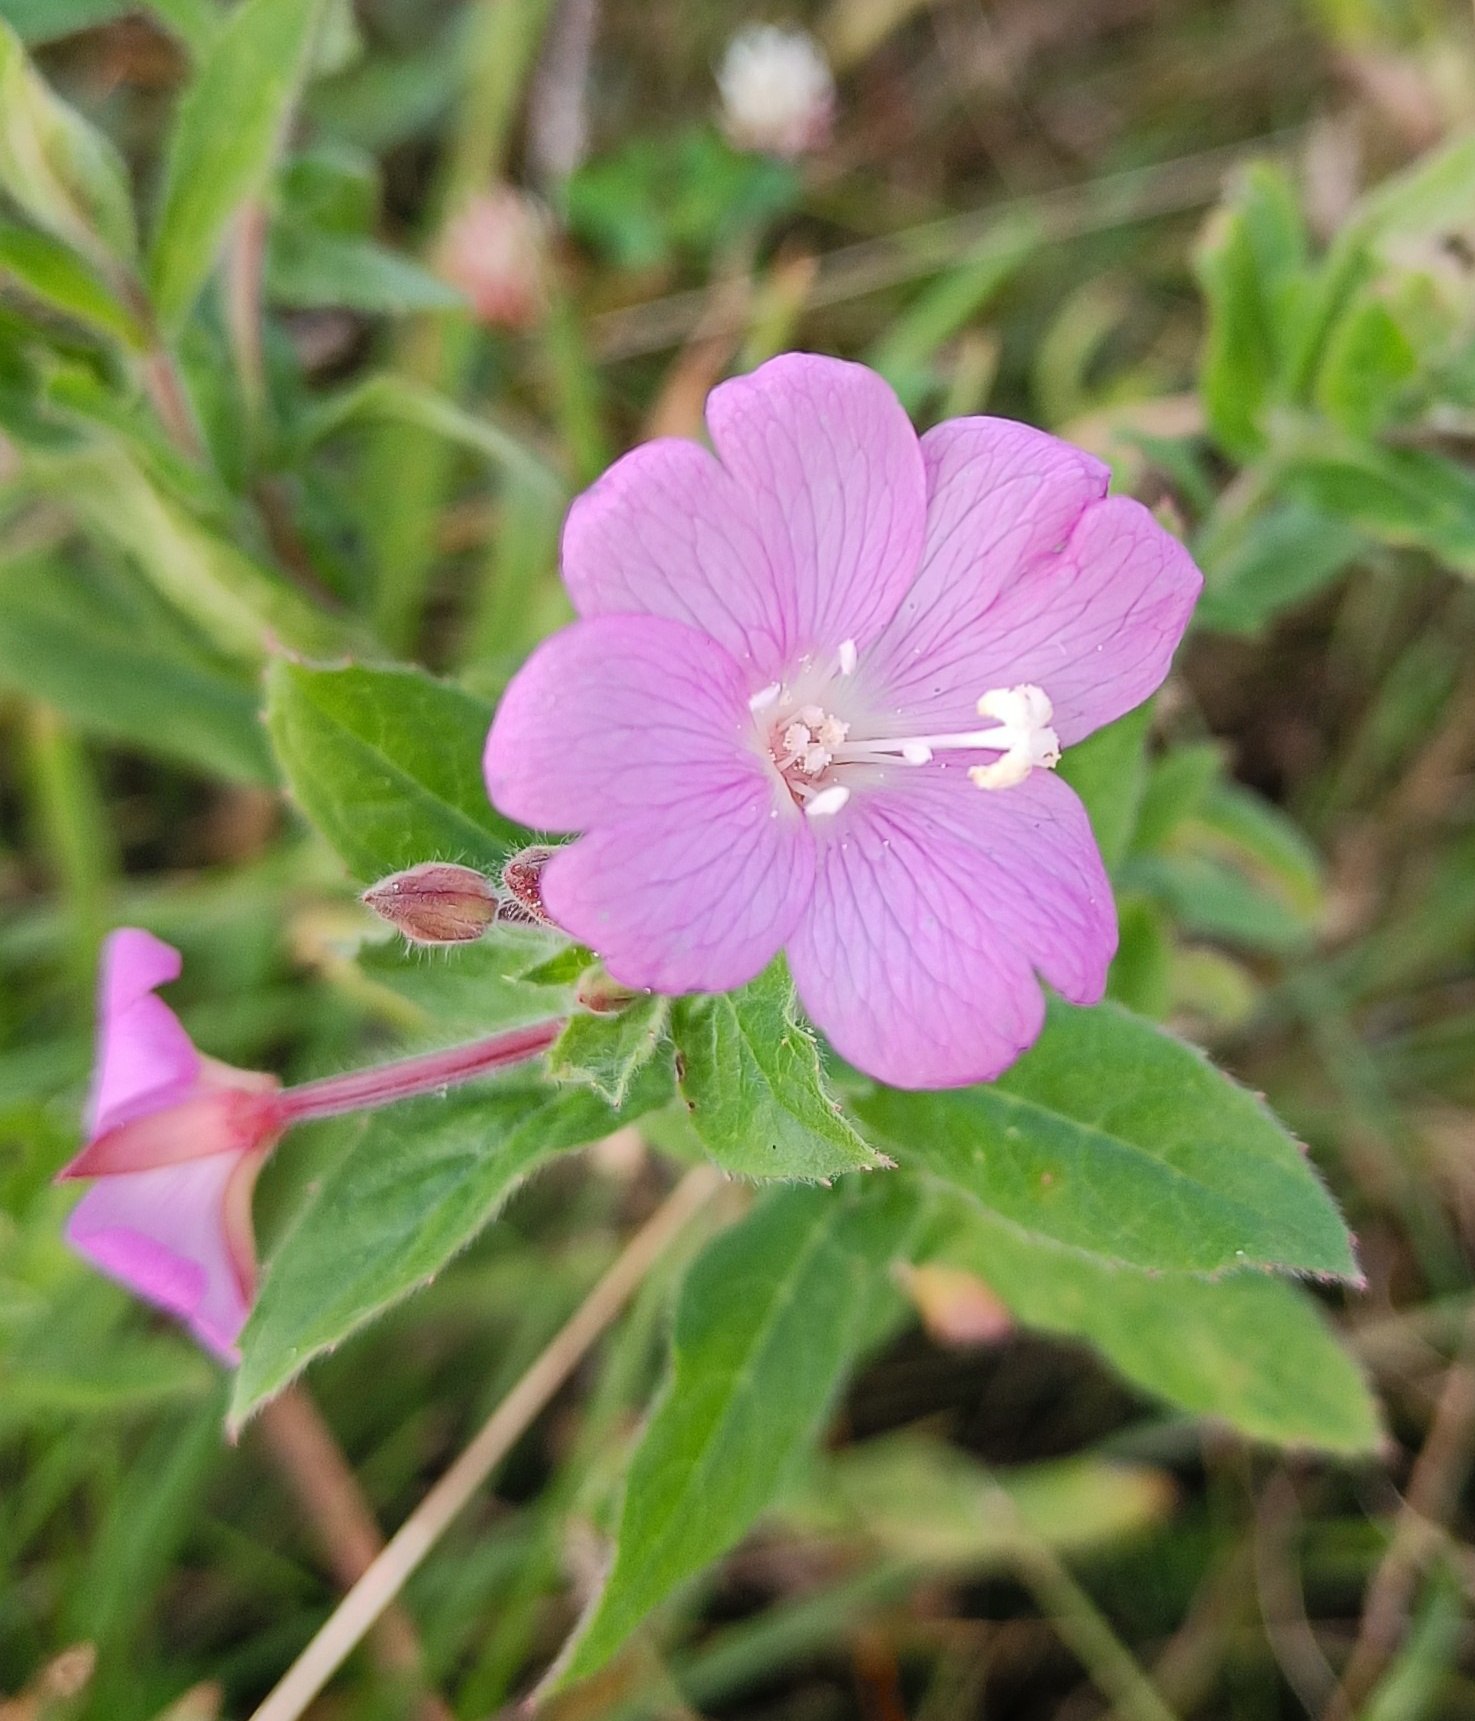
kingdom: Plantae
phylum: Tracheophyta
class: Magnoliopsida
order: Myrtales
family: Onagraceae
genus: Epilobium
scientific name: Epilobium hirsutum
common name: Lådden dueurt
